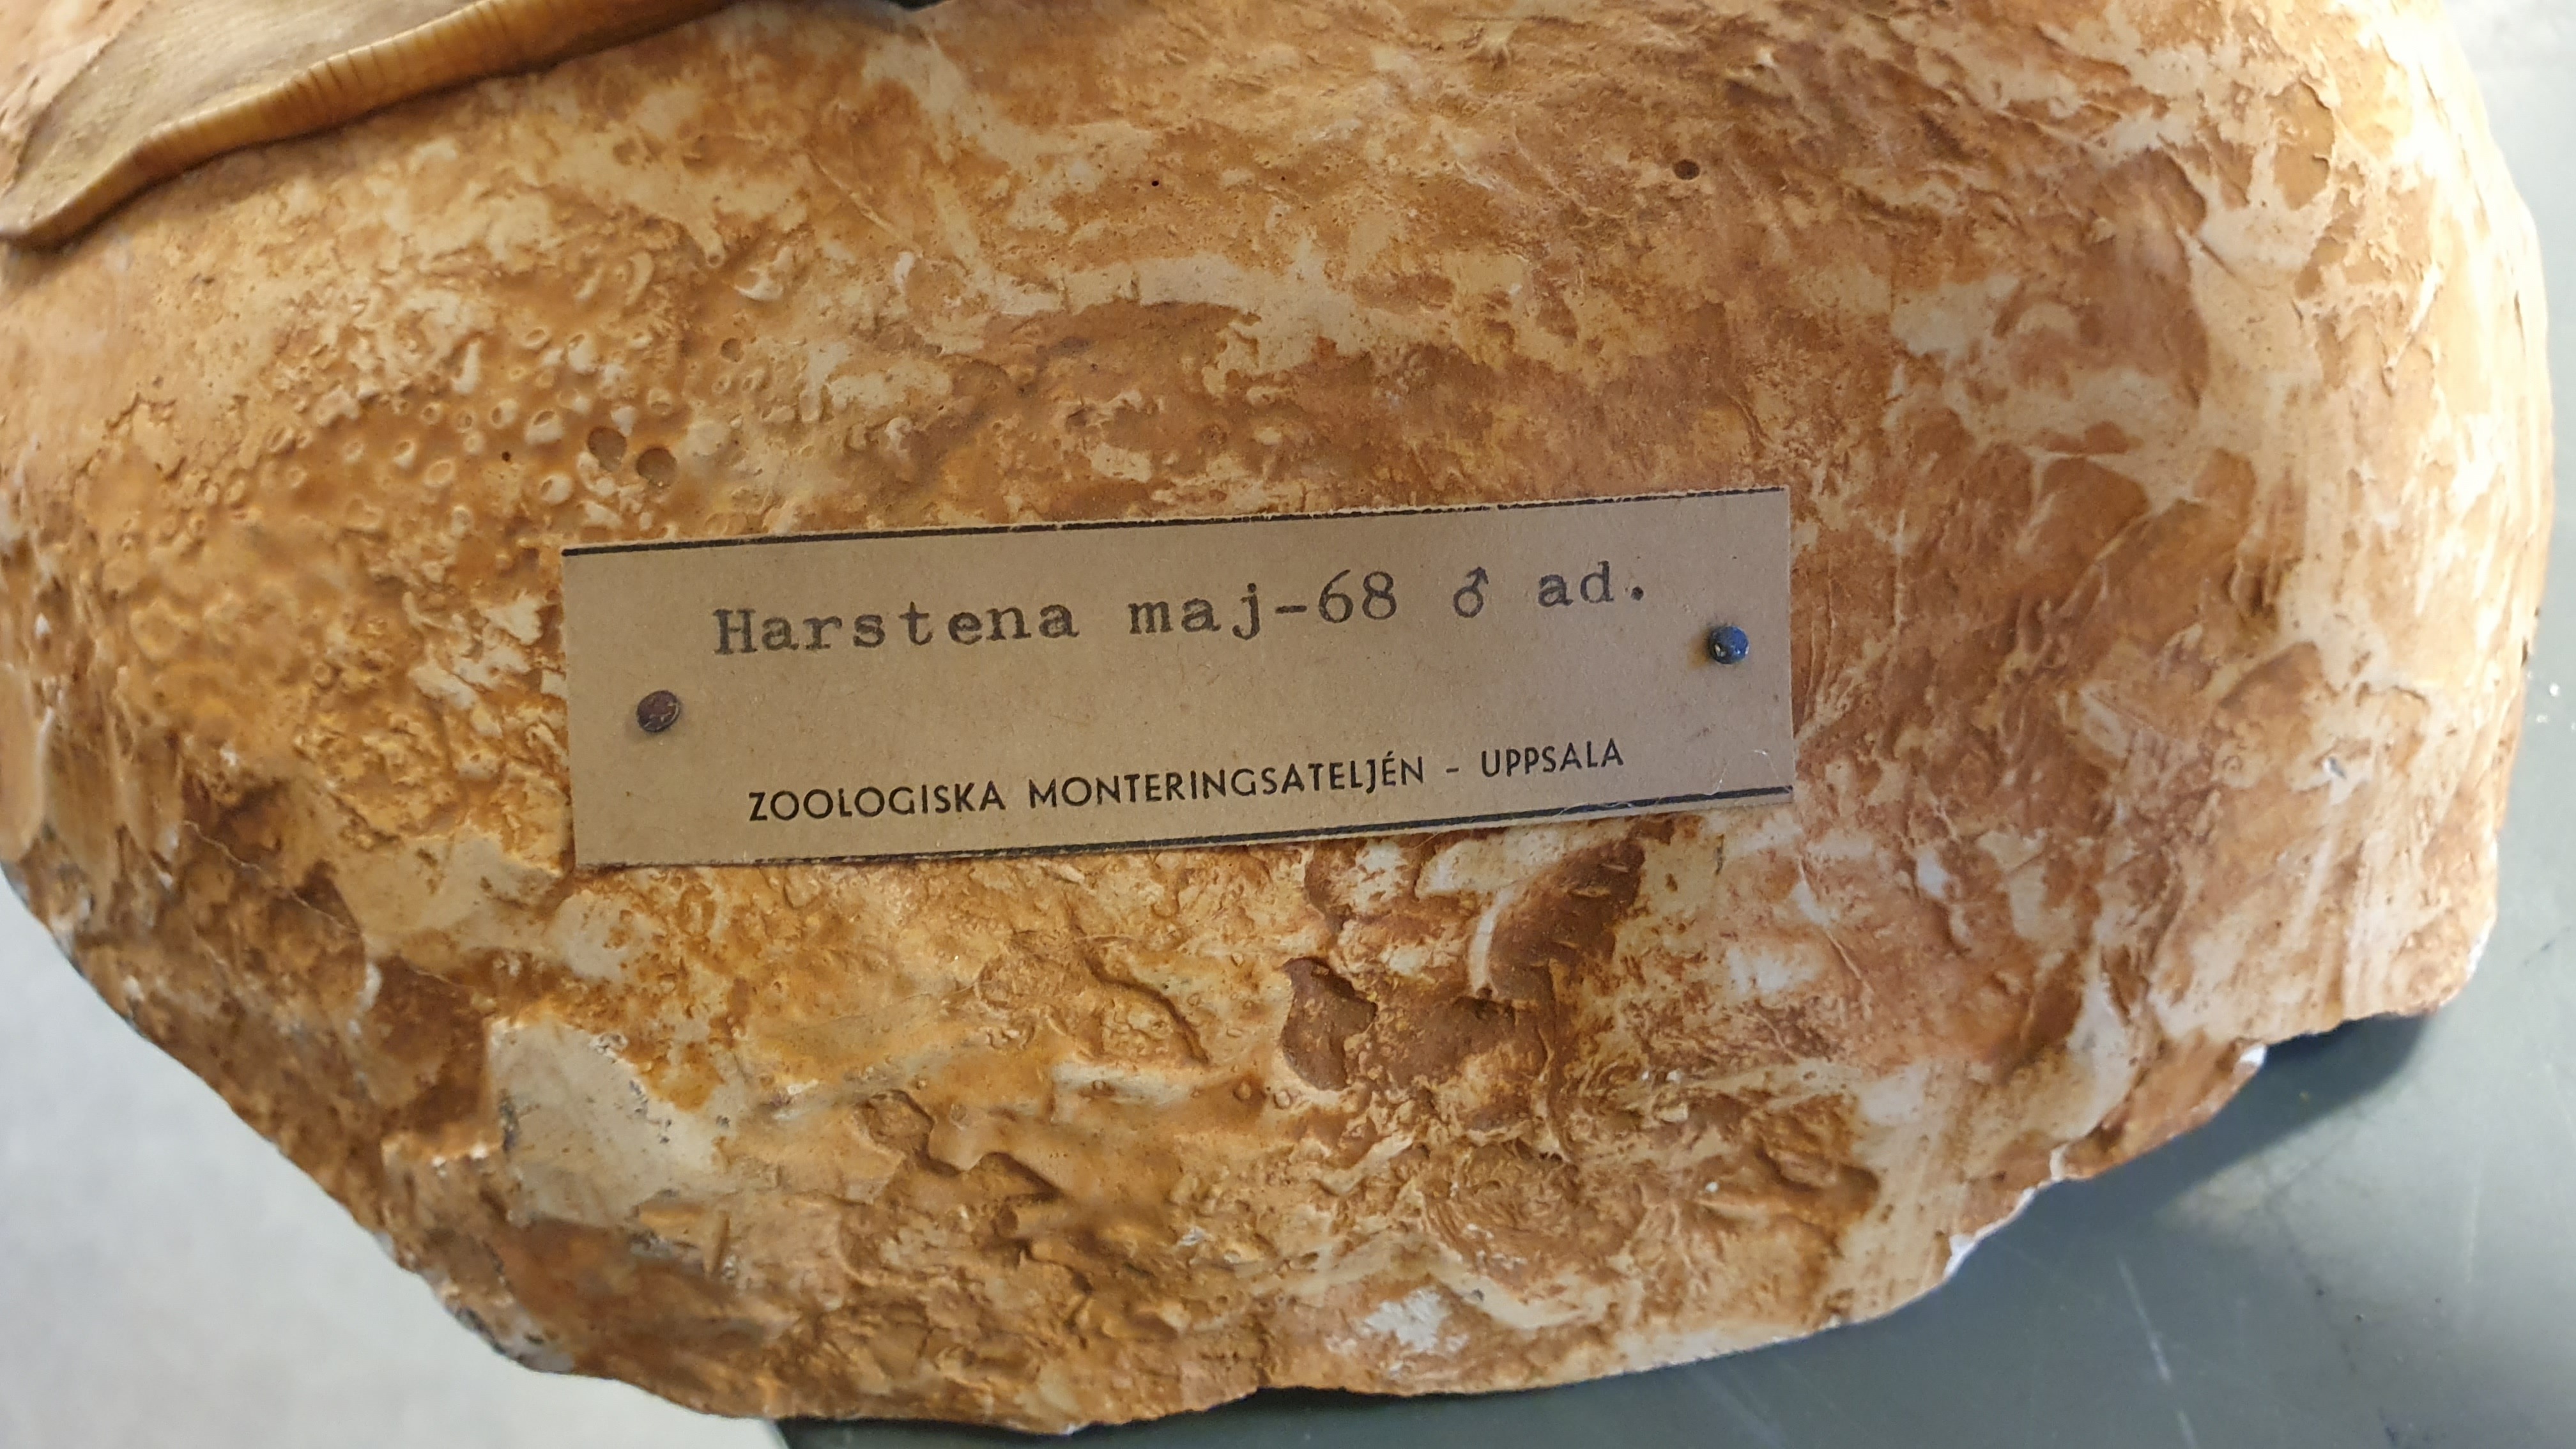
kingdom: Animalia
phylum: Chordata
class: Aves
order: Anseriformes
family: Anatidae
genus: Mergus
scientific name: Mergus serrator
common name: Red-breasted merganser
